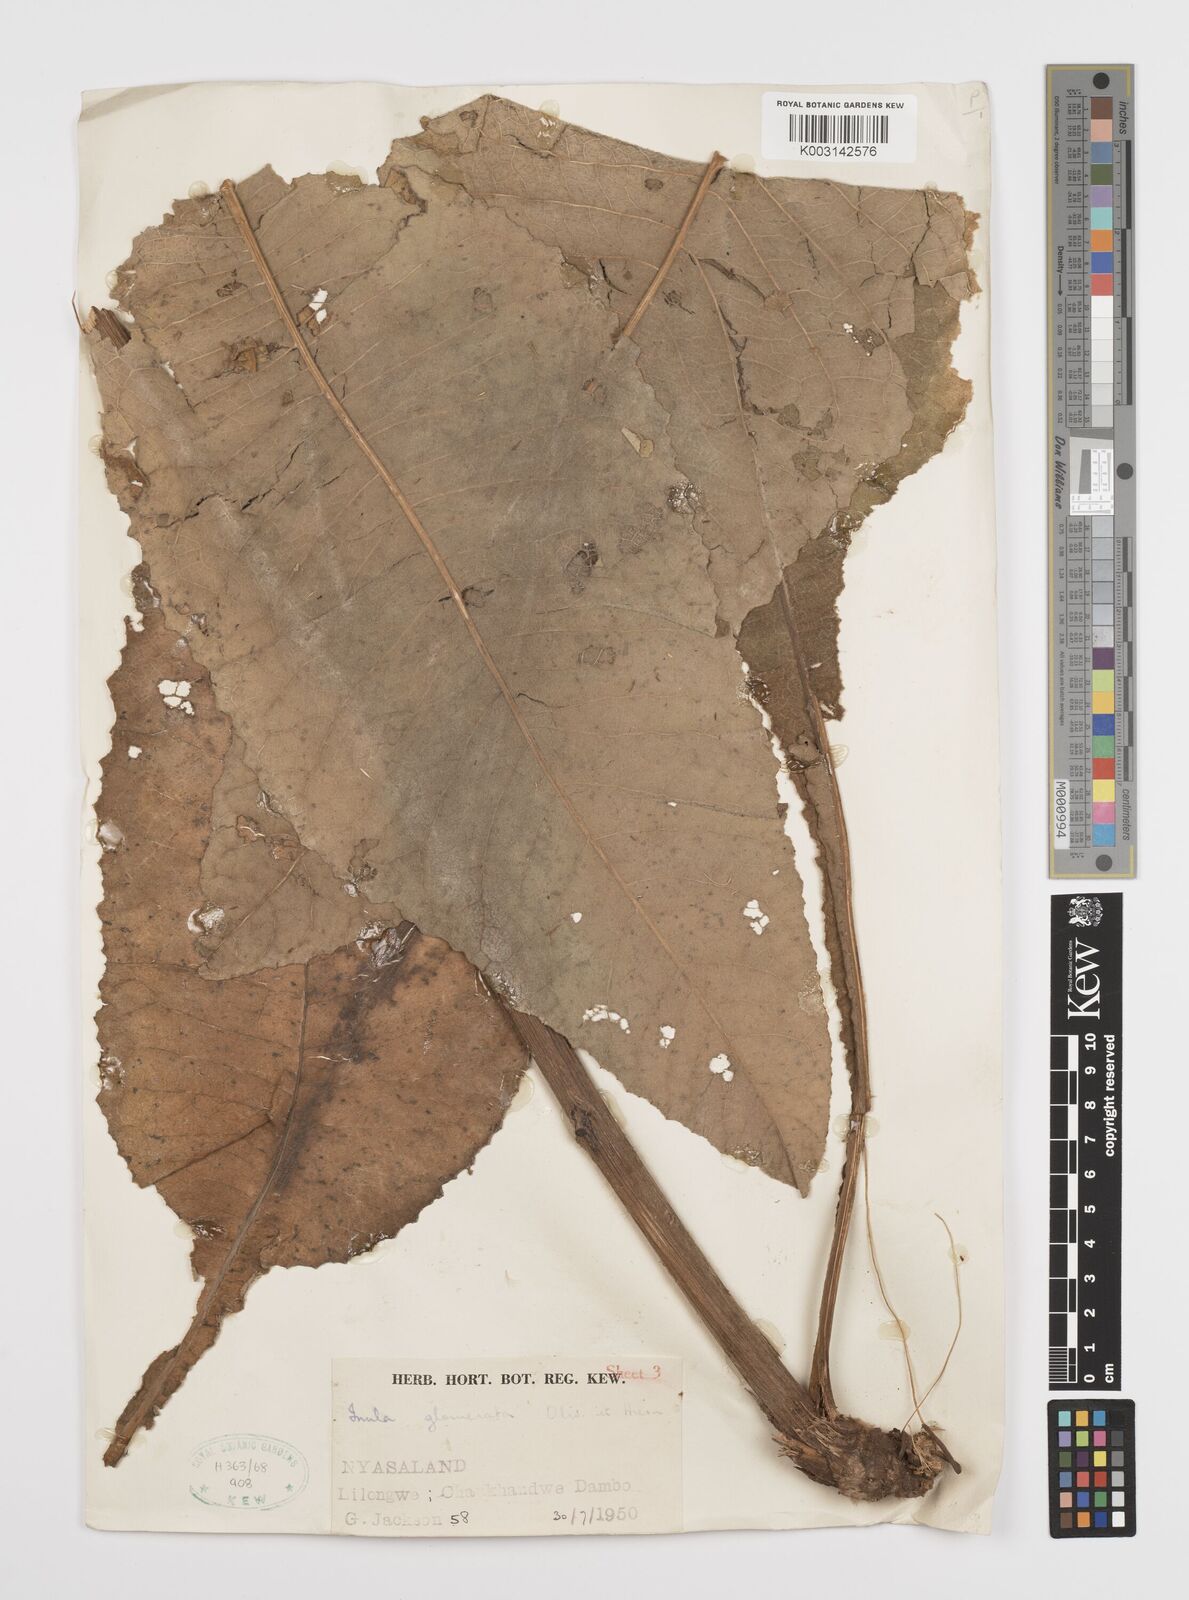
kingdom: Plantae
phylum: Tracheophyta
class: Magnoliopsida
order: Asterales
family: Asteraceae
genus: Inula
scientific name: Inula glomerata
